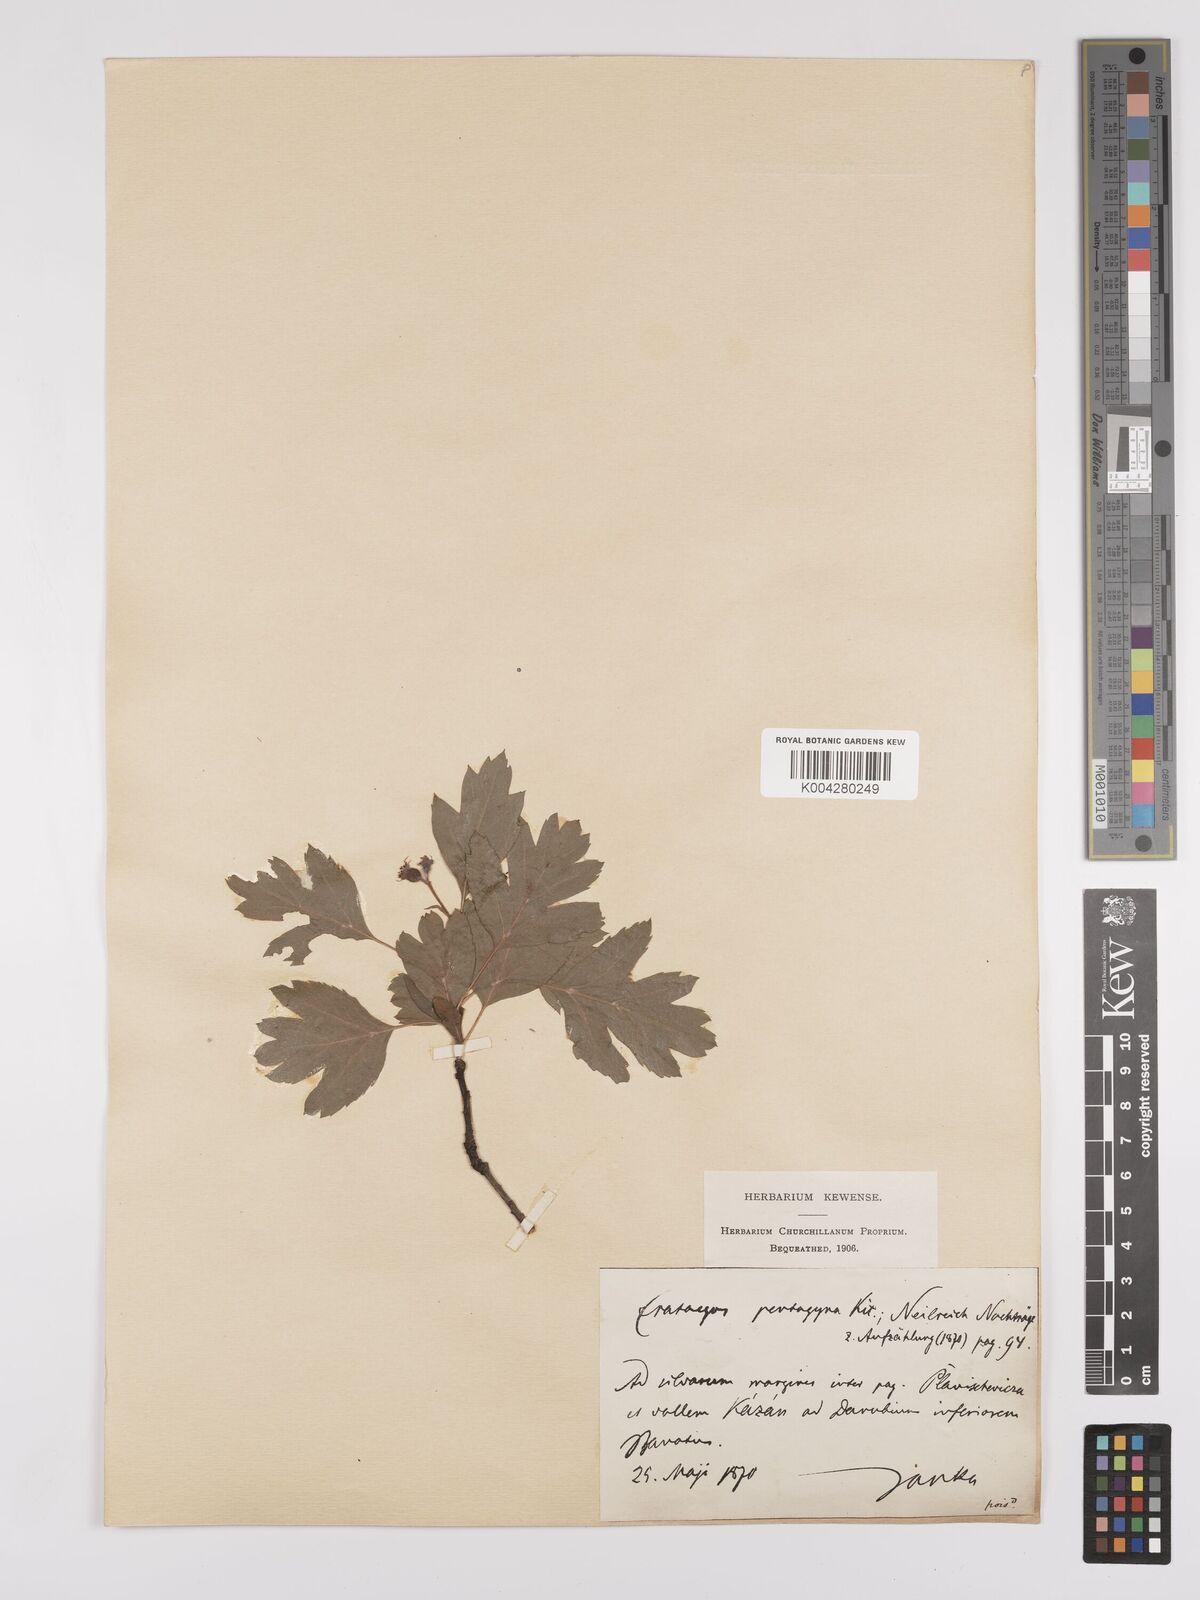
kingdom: Plantae
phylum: Tracheophyta
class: Magnoliopsida
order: Rosales
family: Rosaceae
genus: Crataegus
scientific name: Crataegus pentagyna
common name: Small-flowered black hawthorn
